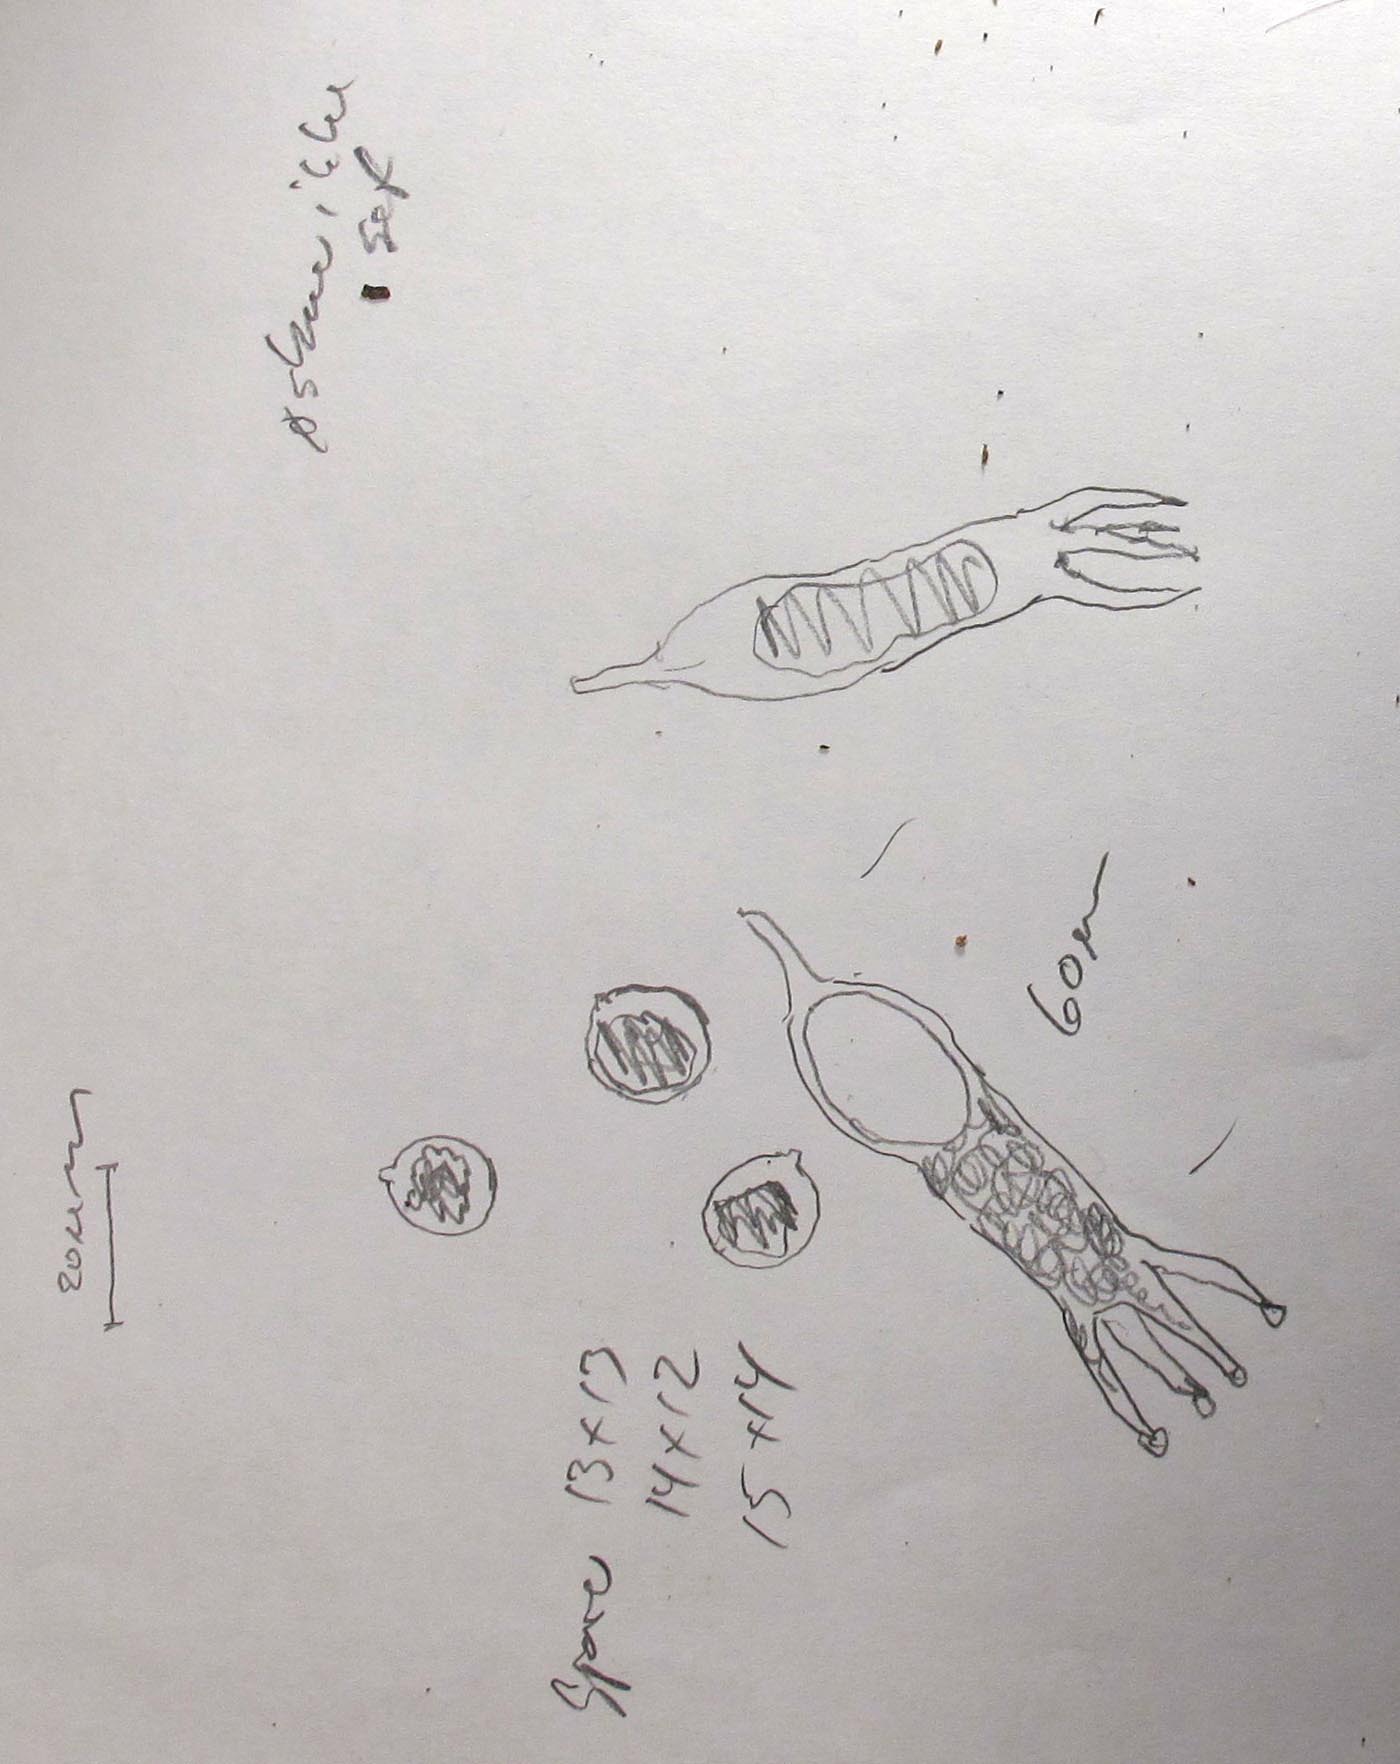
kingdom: Fungi
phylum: Basidiomycota
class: Agaricomycetes
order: Hymenochaetales
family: Rickenellaceae
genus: Globulicium
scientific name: Globulicium hiemale
